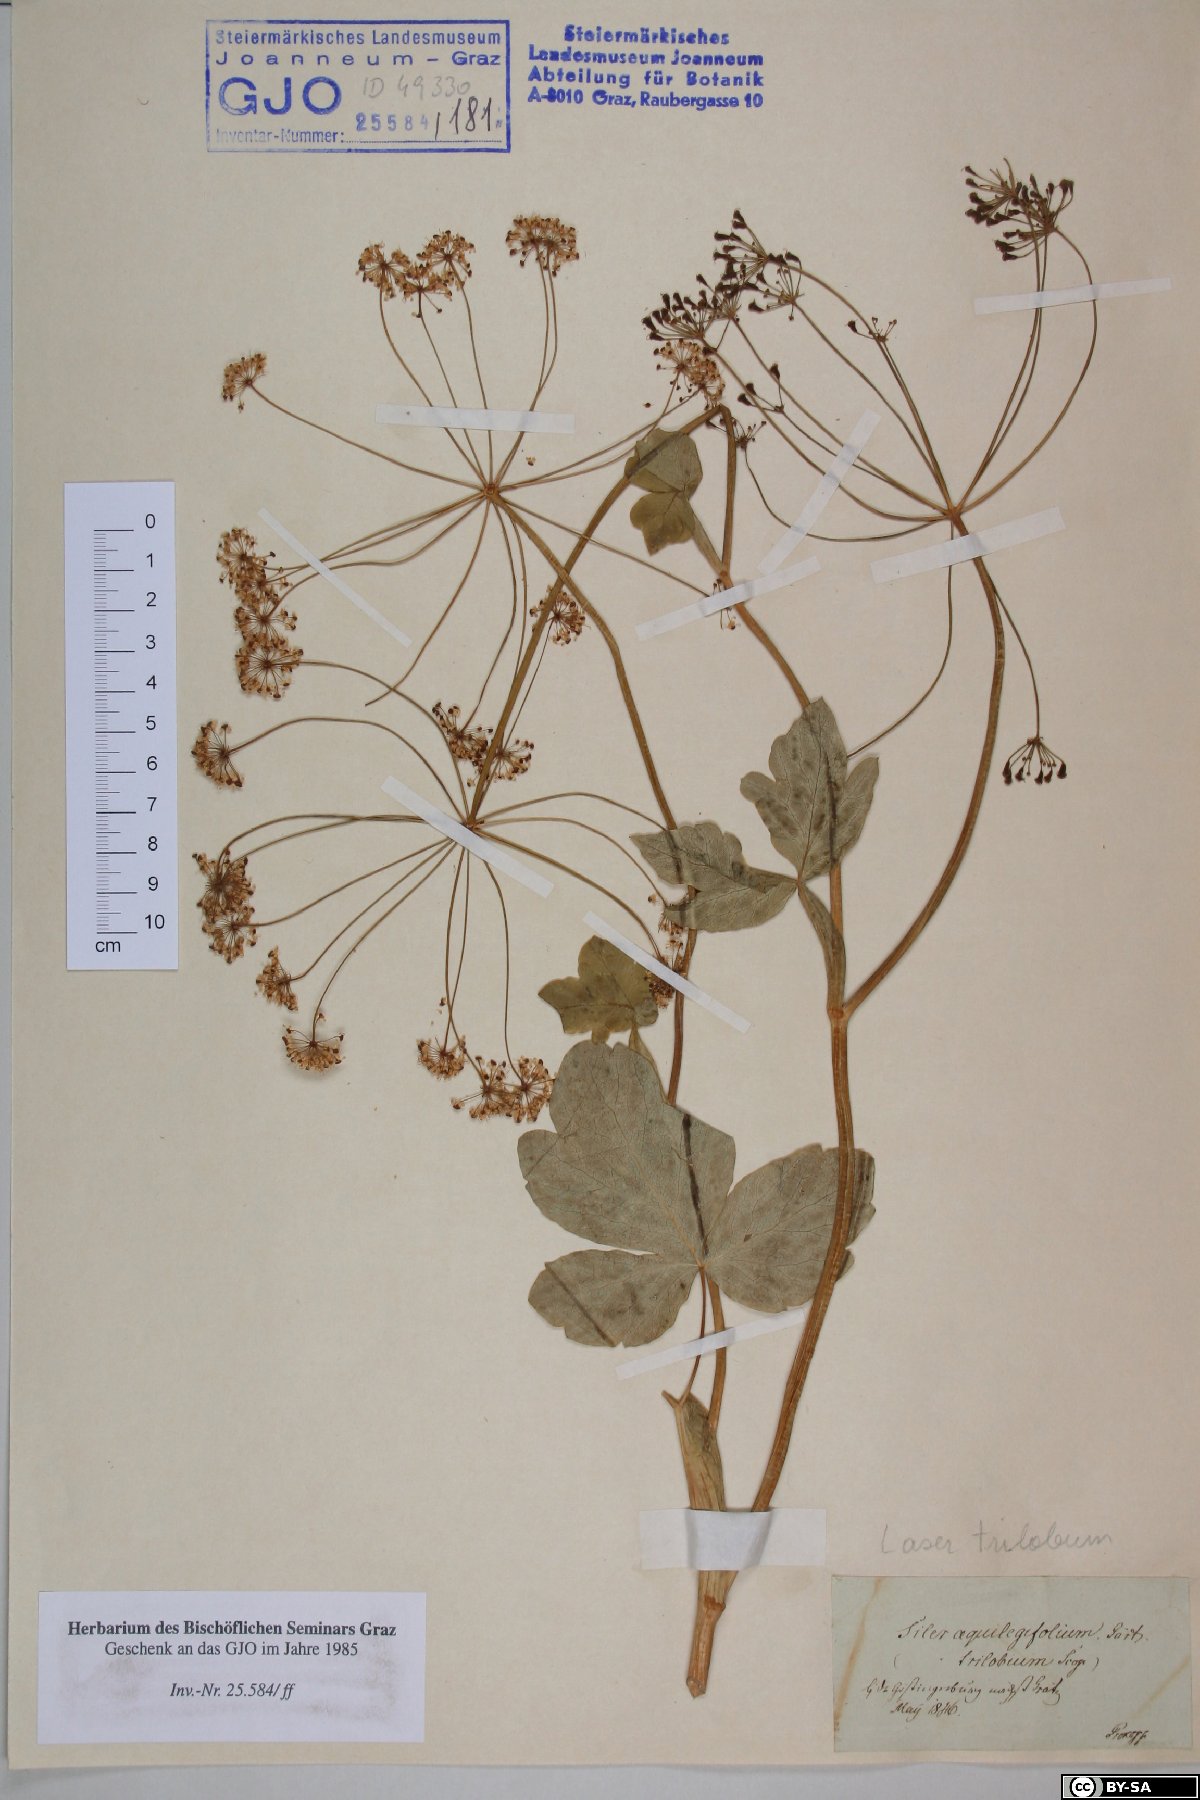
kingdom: Plantae
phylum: Tracheophyta
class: Magnoliopsida
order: Apiales
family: Apiaceae
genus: Laser
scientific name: Laser trilobum
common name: Laser
